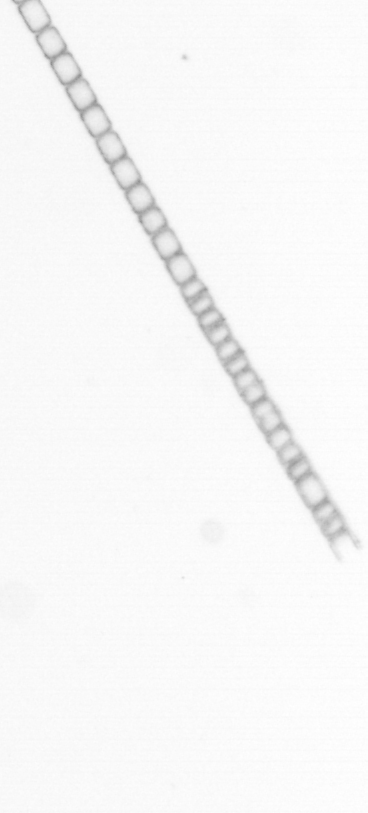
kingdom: Chromista
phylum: Ochrophyta
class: Bacillariophyceae
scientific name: Bacillariophyceae
